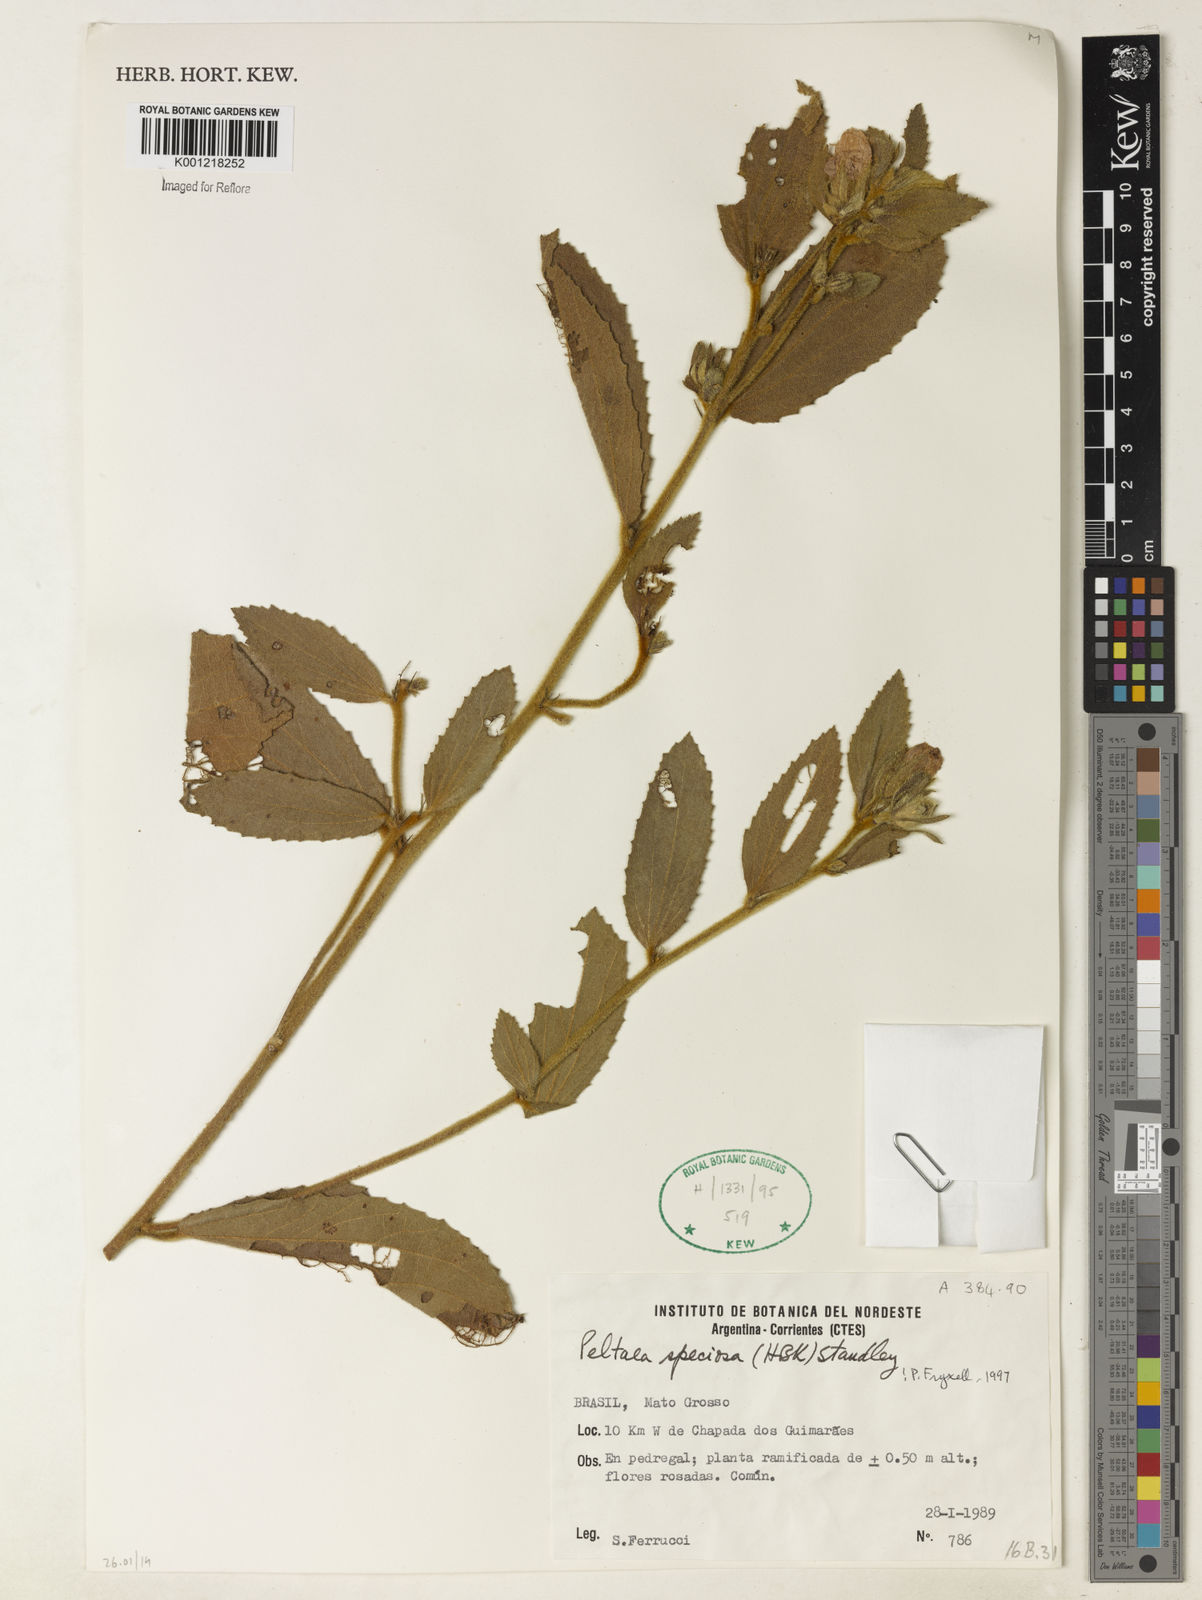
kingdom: Plantae
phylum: Tracheophyta
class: Magnoliopsida
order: Malvales
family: Malvaceae
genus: Peltaea
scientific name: Peltaea speciosa
